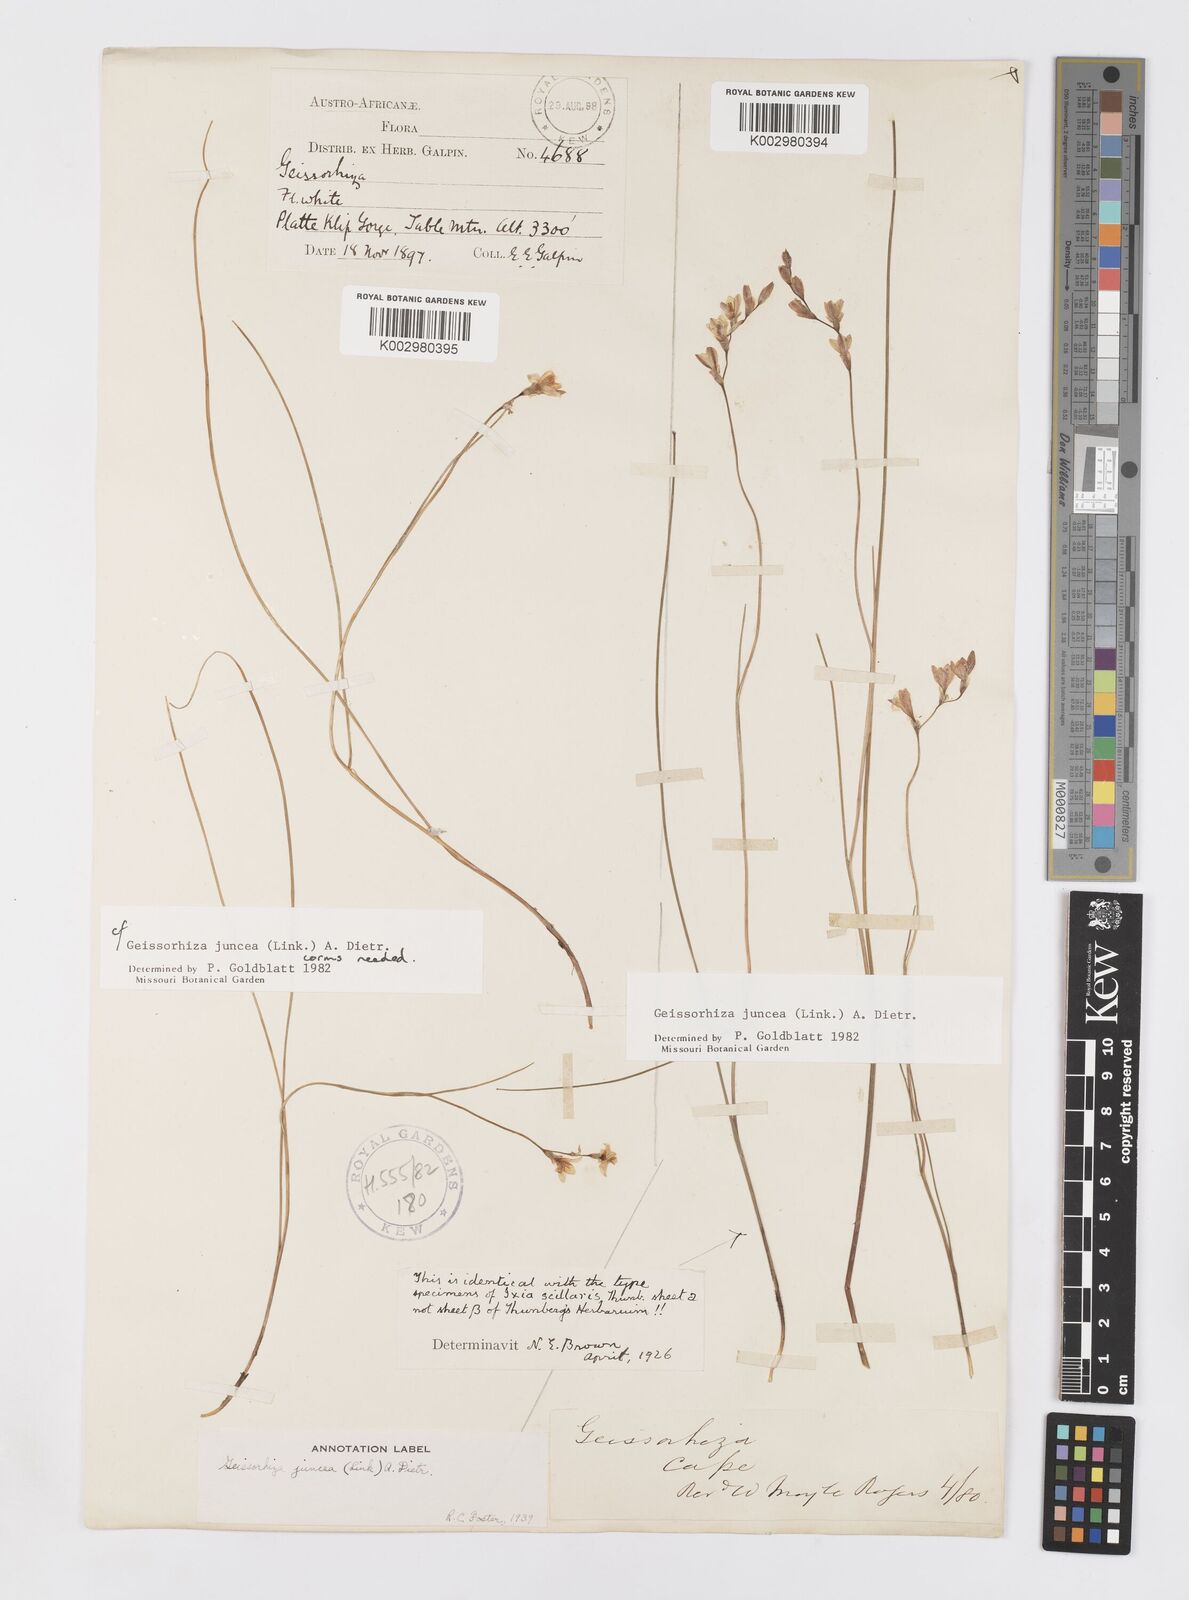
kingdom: Plantae
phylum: Tracheophyta
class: Liliopsida
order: Asparagales
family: Iridaceae
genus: Geissorhiza
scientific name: Geissorhiza juncea
